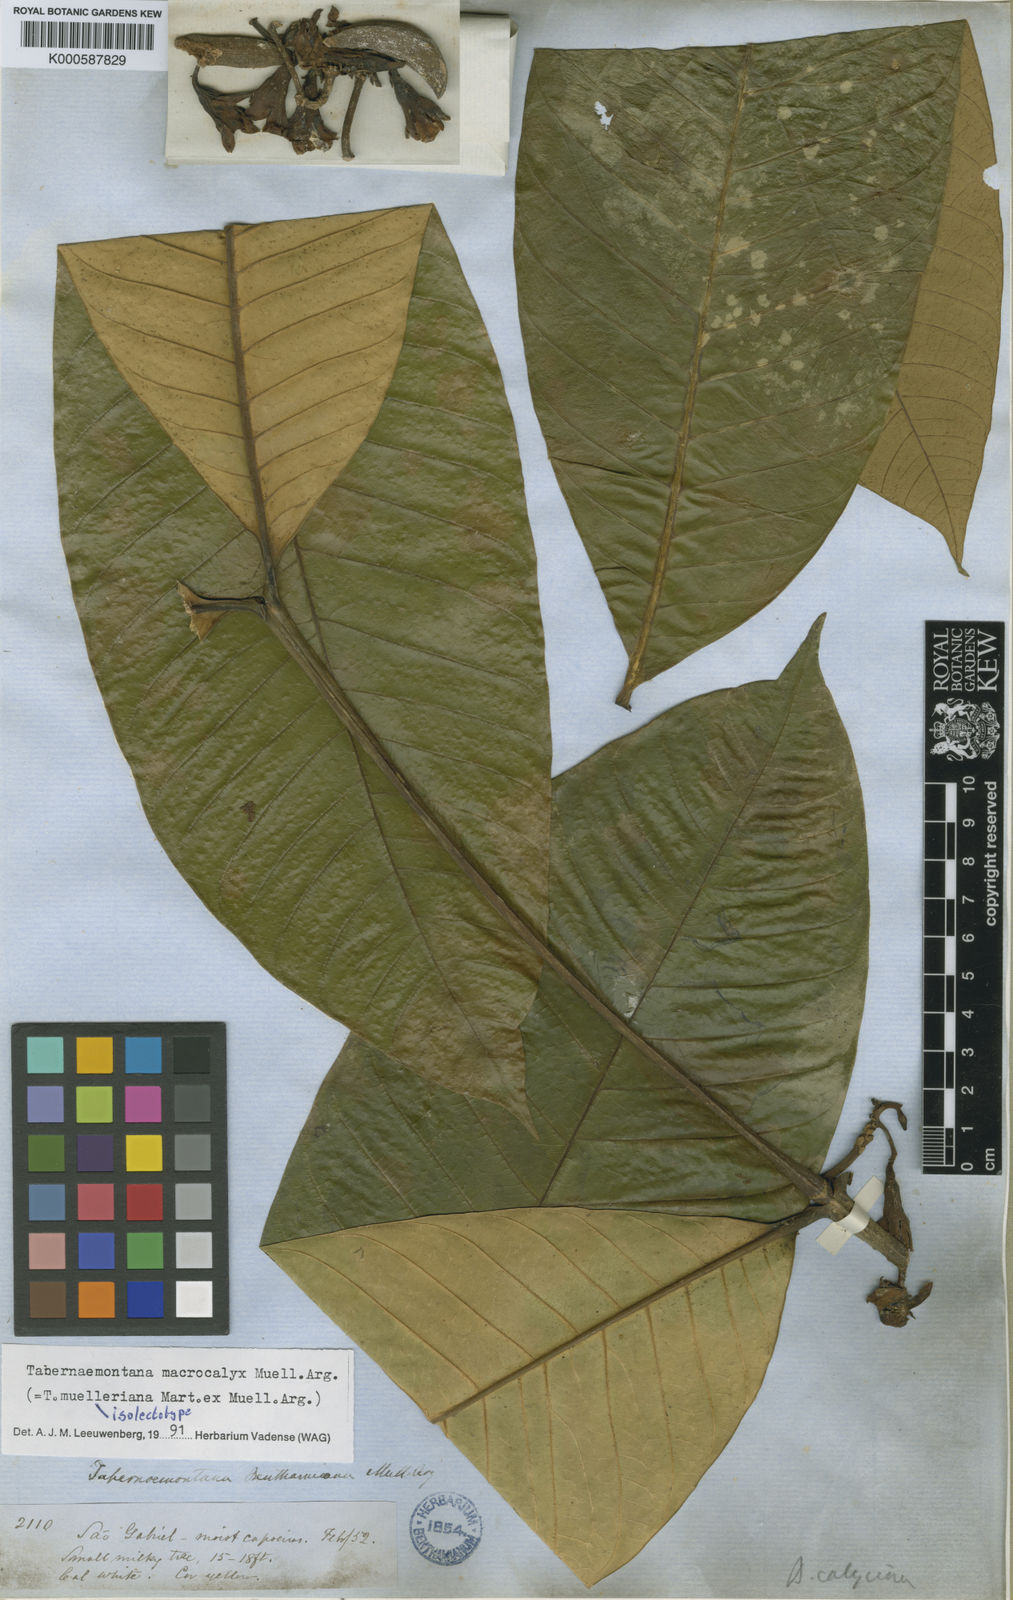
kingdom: Plantae
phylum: Tracheophyta
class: Magnoliopsida
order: Gentianales
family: Apocynaceae
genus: Tabernaemontana
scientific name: Tabernaemontana
